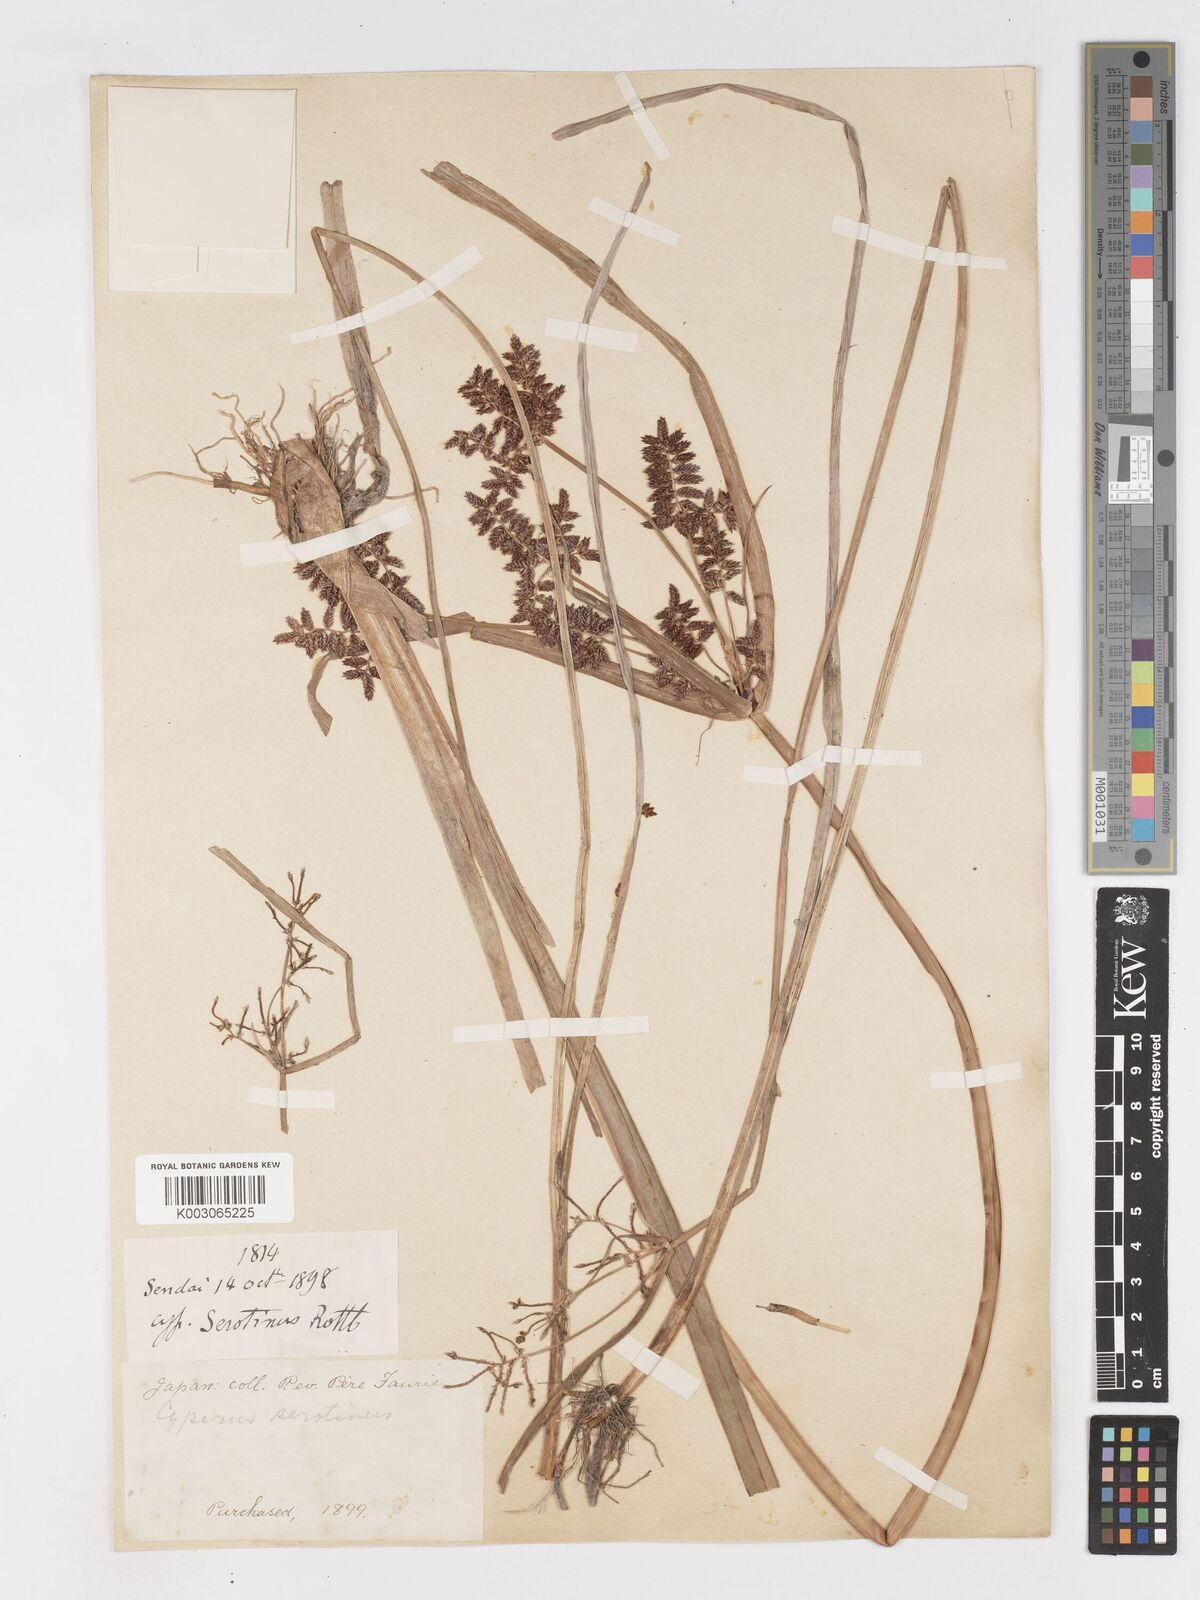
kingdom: Plantae
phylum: Tracheophyta
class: Liliopsida
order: Poales
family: Cyperaceae
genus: Cyperus
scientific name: Cyperus serotinus
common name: Tidalmarsh flatsedge
